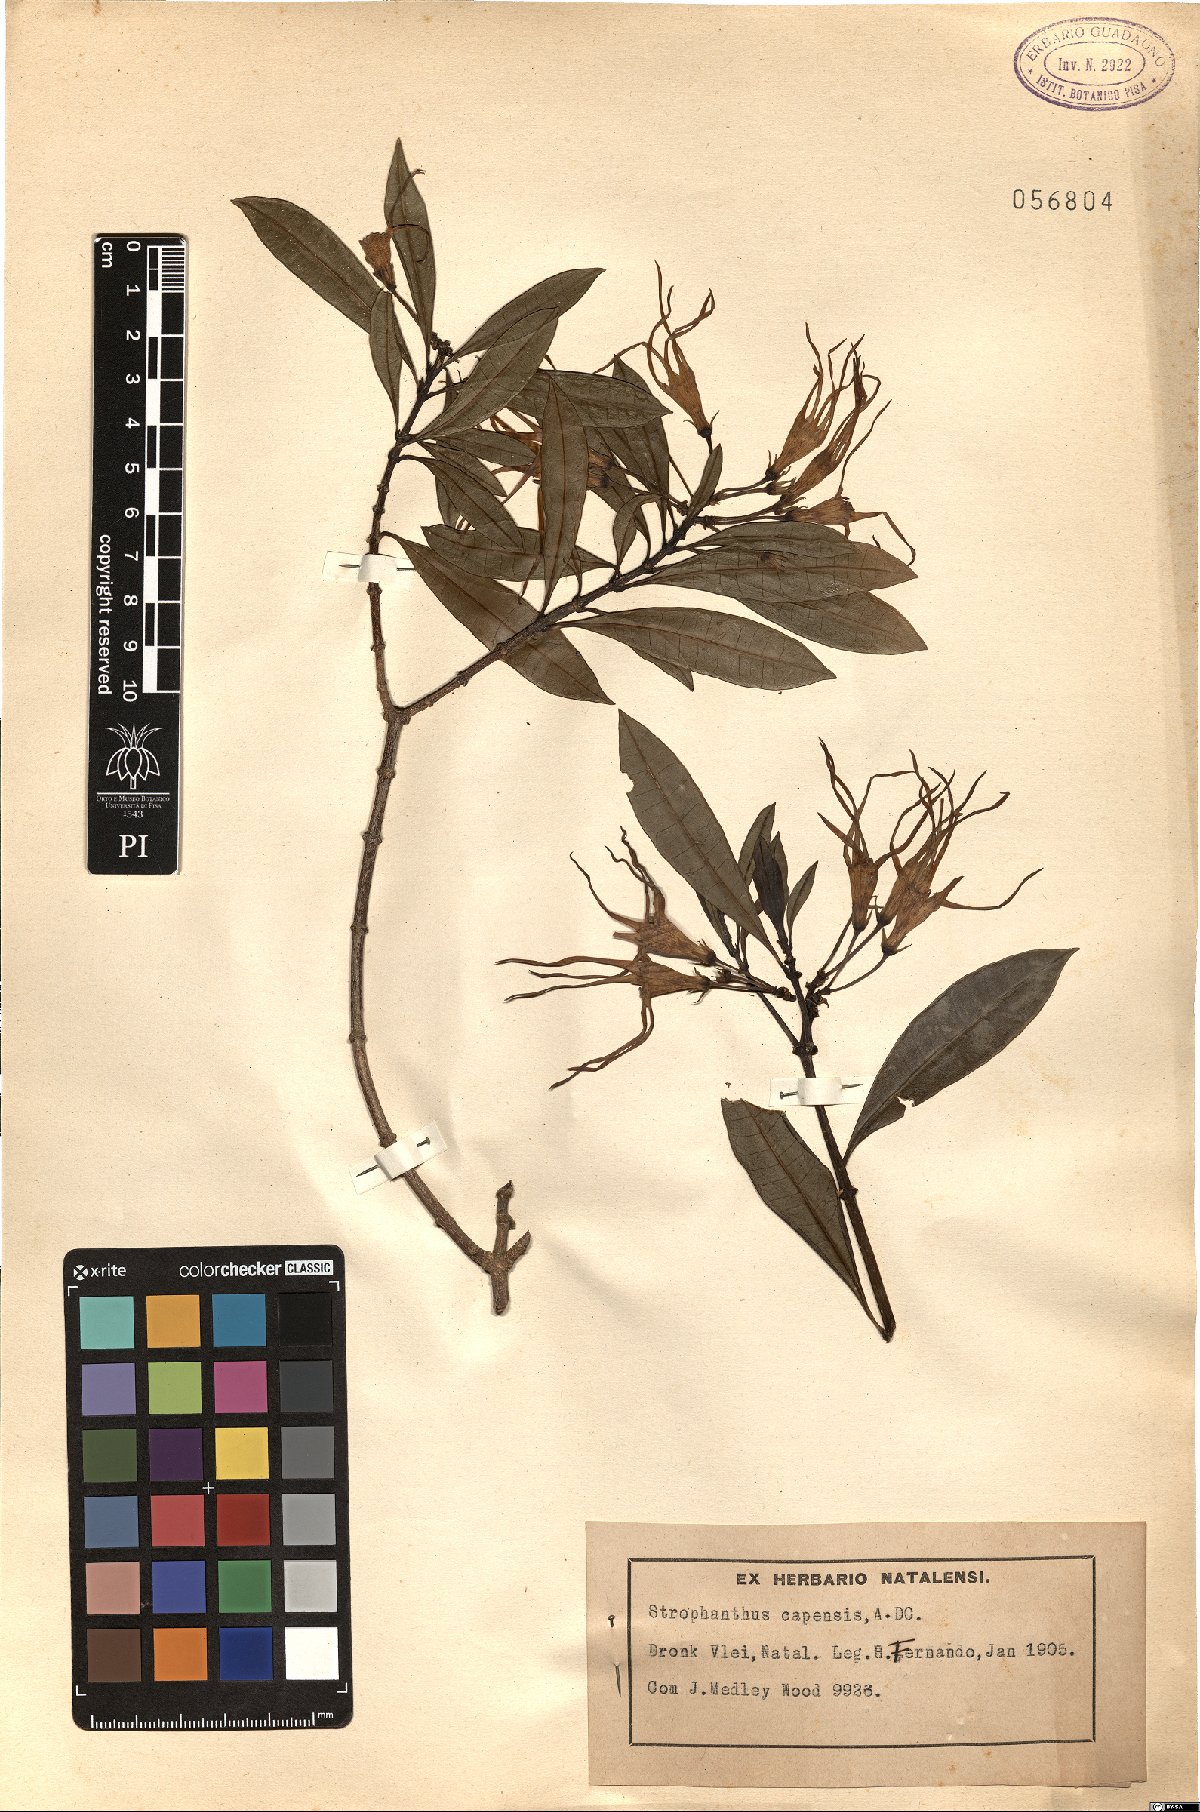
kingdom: Plantae
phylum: Tracheophyta
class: Magnoliopsida
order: Gentianales
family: Apocynaceae
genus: Strophanthus
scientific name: Strophanthus speciosus
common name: Common poisonrope
